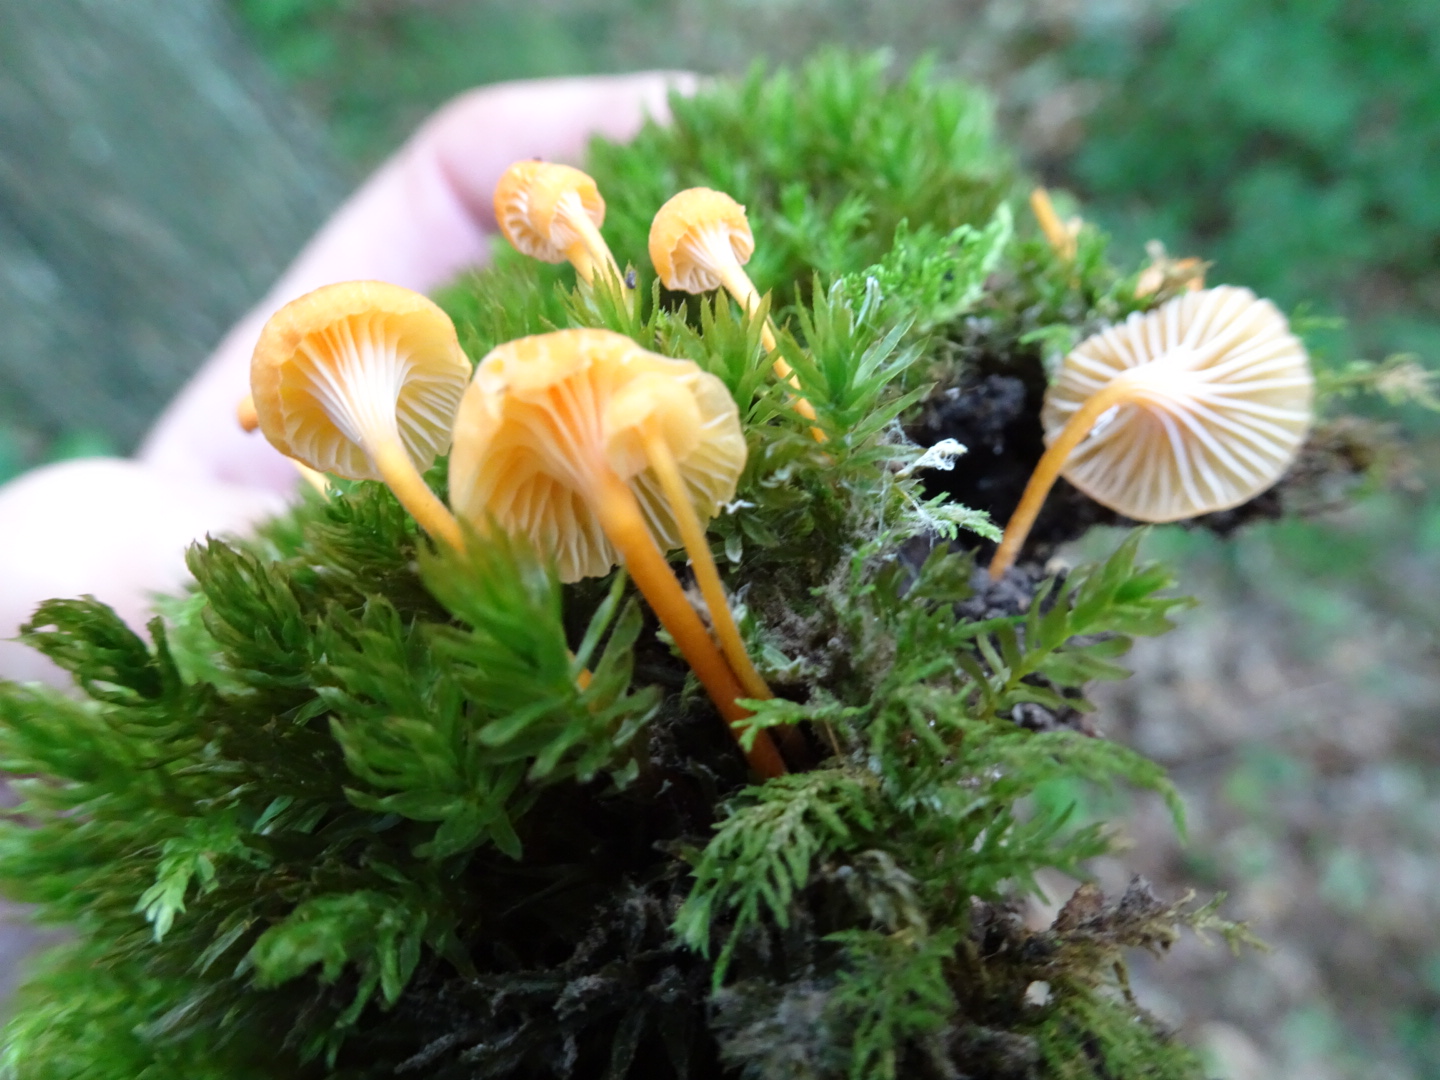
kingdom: Fungi
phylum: Basidiomycota
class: Agaricomycetes
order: Hymenochaetales
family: Rickenellaceae
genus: Rickenella
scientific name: Rickenella fibula
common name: orange mosnavlehat
